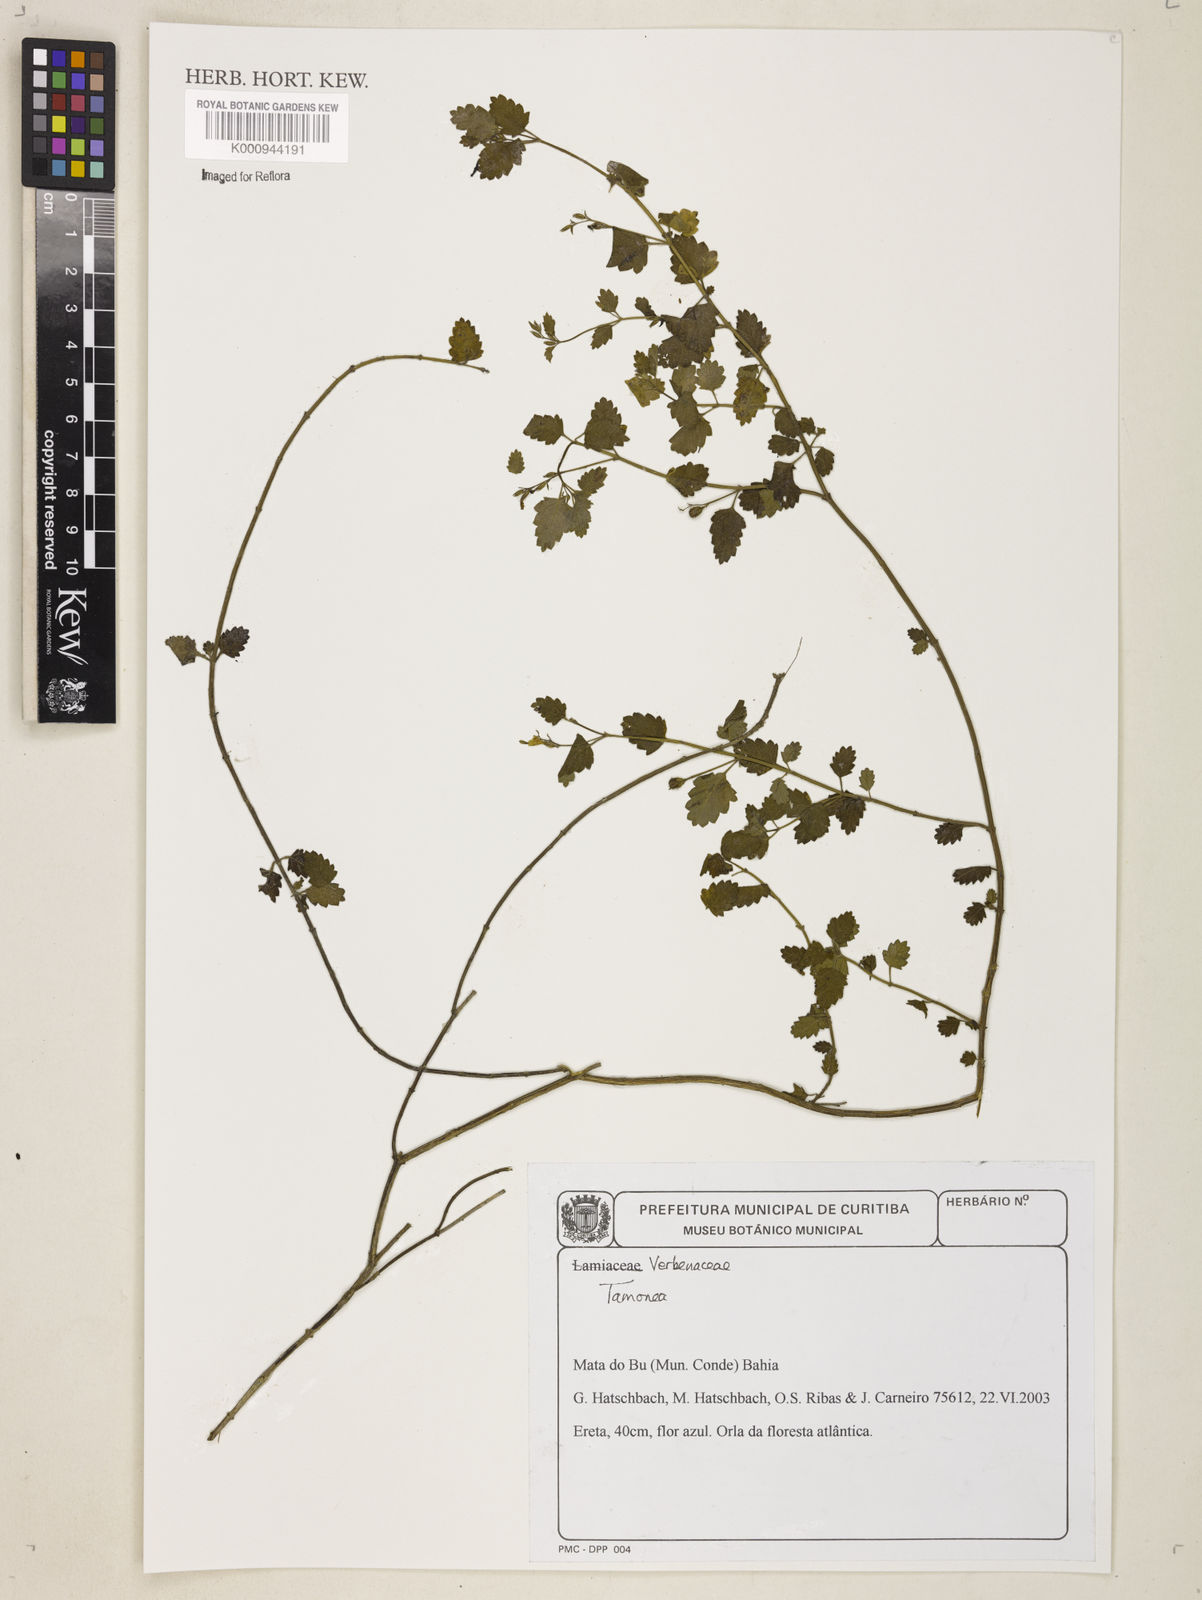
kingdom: Plantae
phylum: Tracheophyta
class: Magnoliopsida
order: Lamiales
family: Verbenaceae
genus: Casselia
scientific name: Casselia
